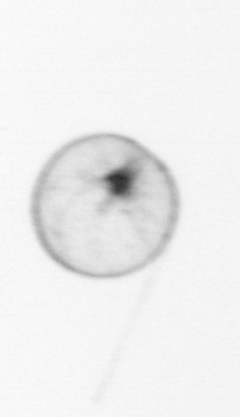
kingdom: Chromista
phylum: Myzozoa
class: Dinophyceae
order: Noctilucales
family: Noctilucaceae
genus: Noctiluca
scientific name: Noctiluca scintillans
